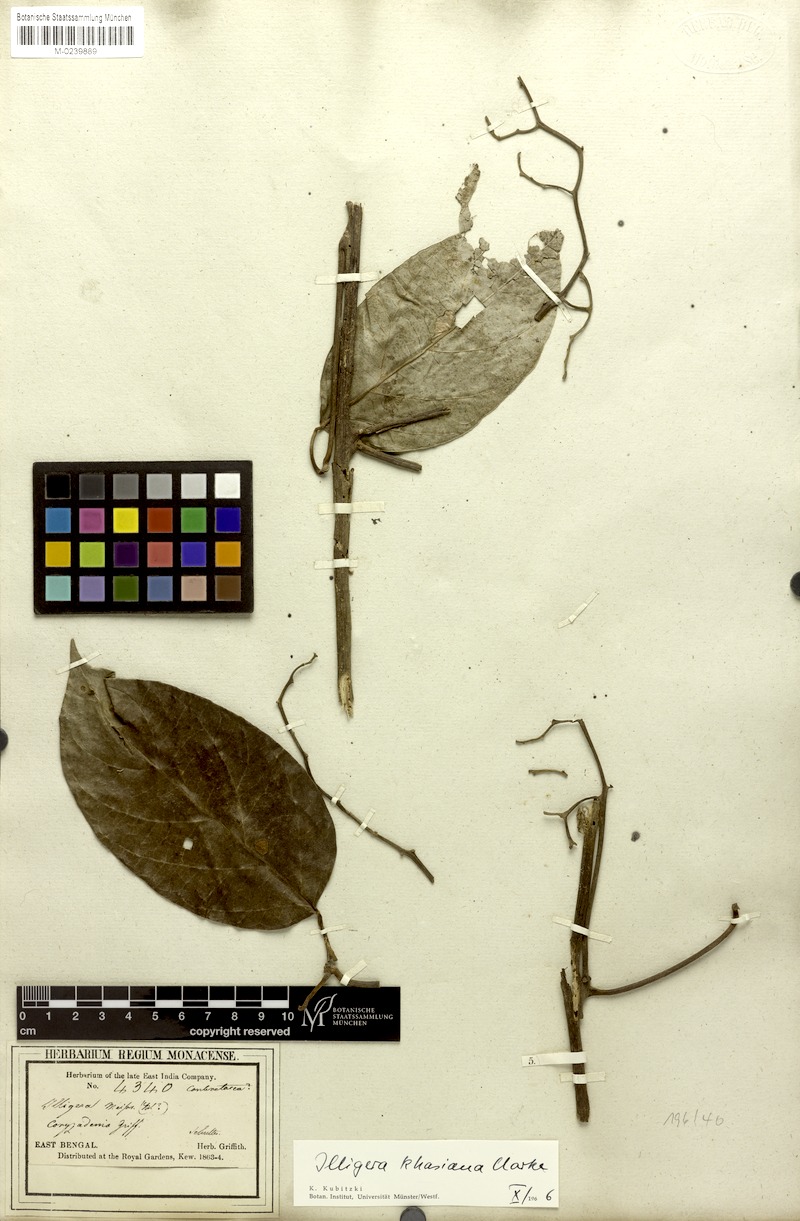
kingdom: Plantae
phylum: Tracheophyta
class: Magnoliopsida
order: Laurales
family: Hernandiaceae
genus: Illigera
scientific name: Illigera khasiana
